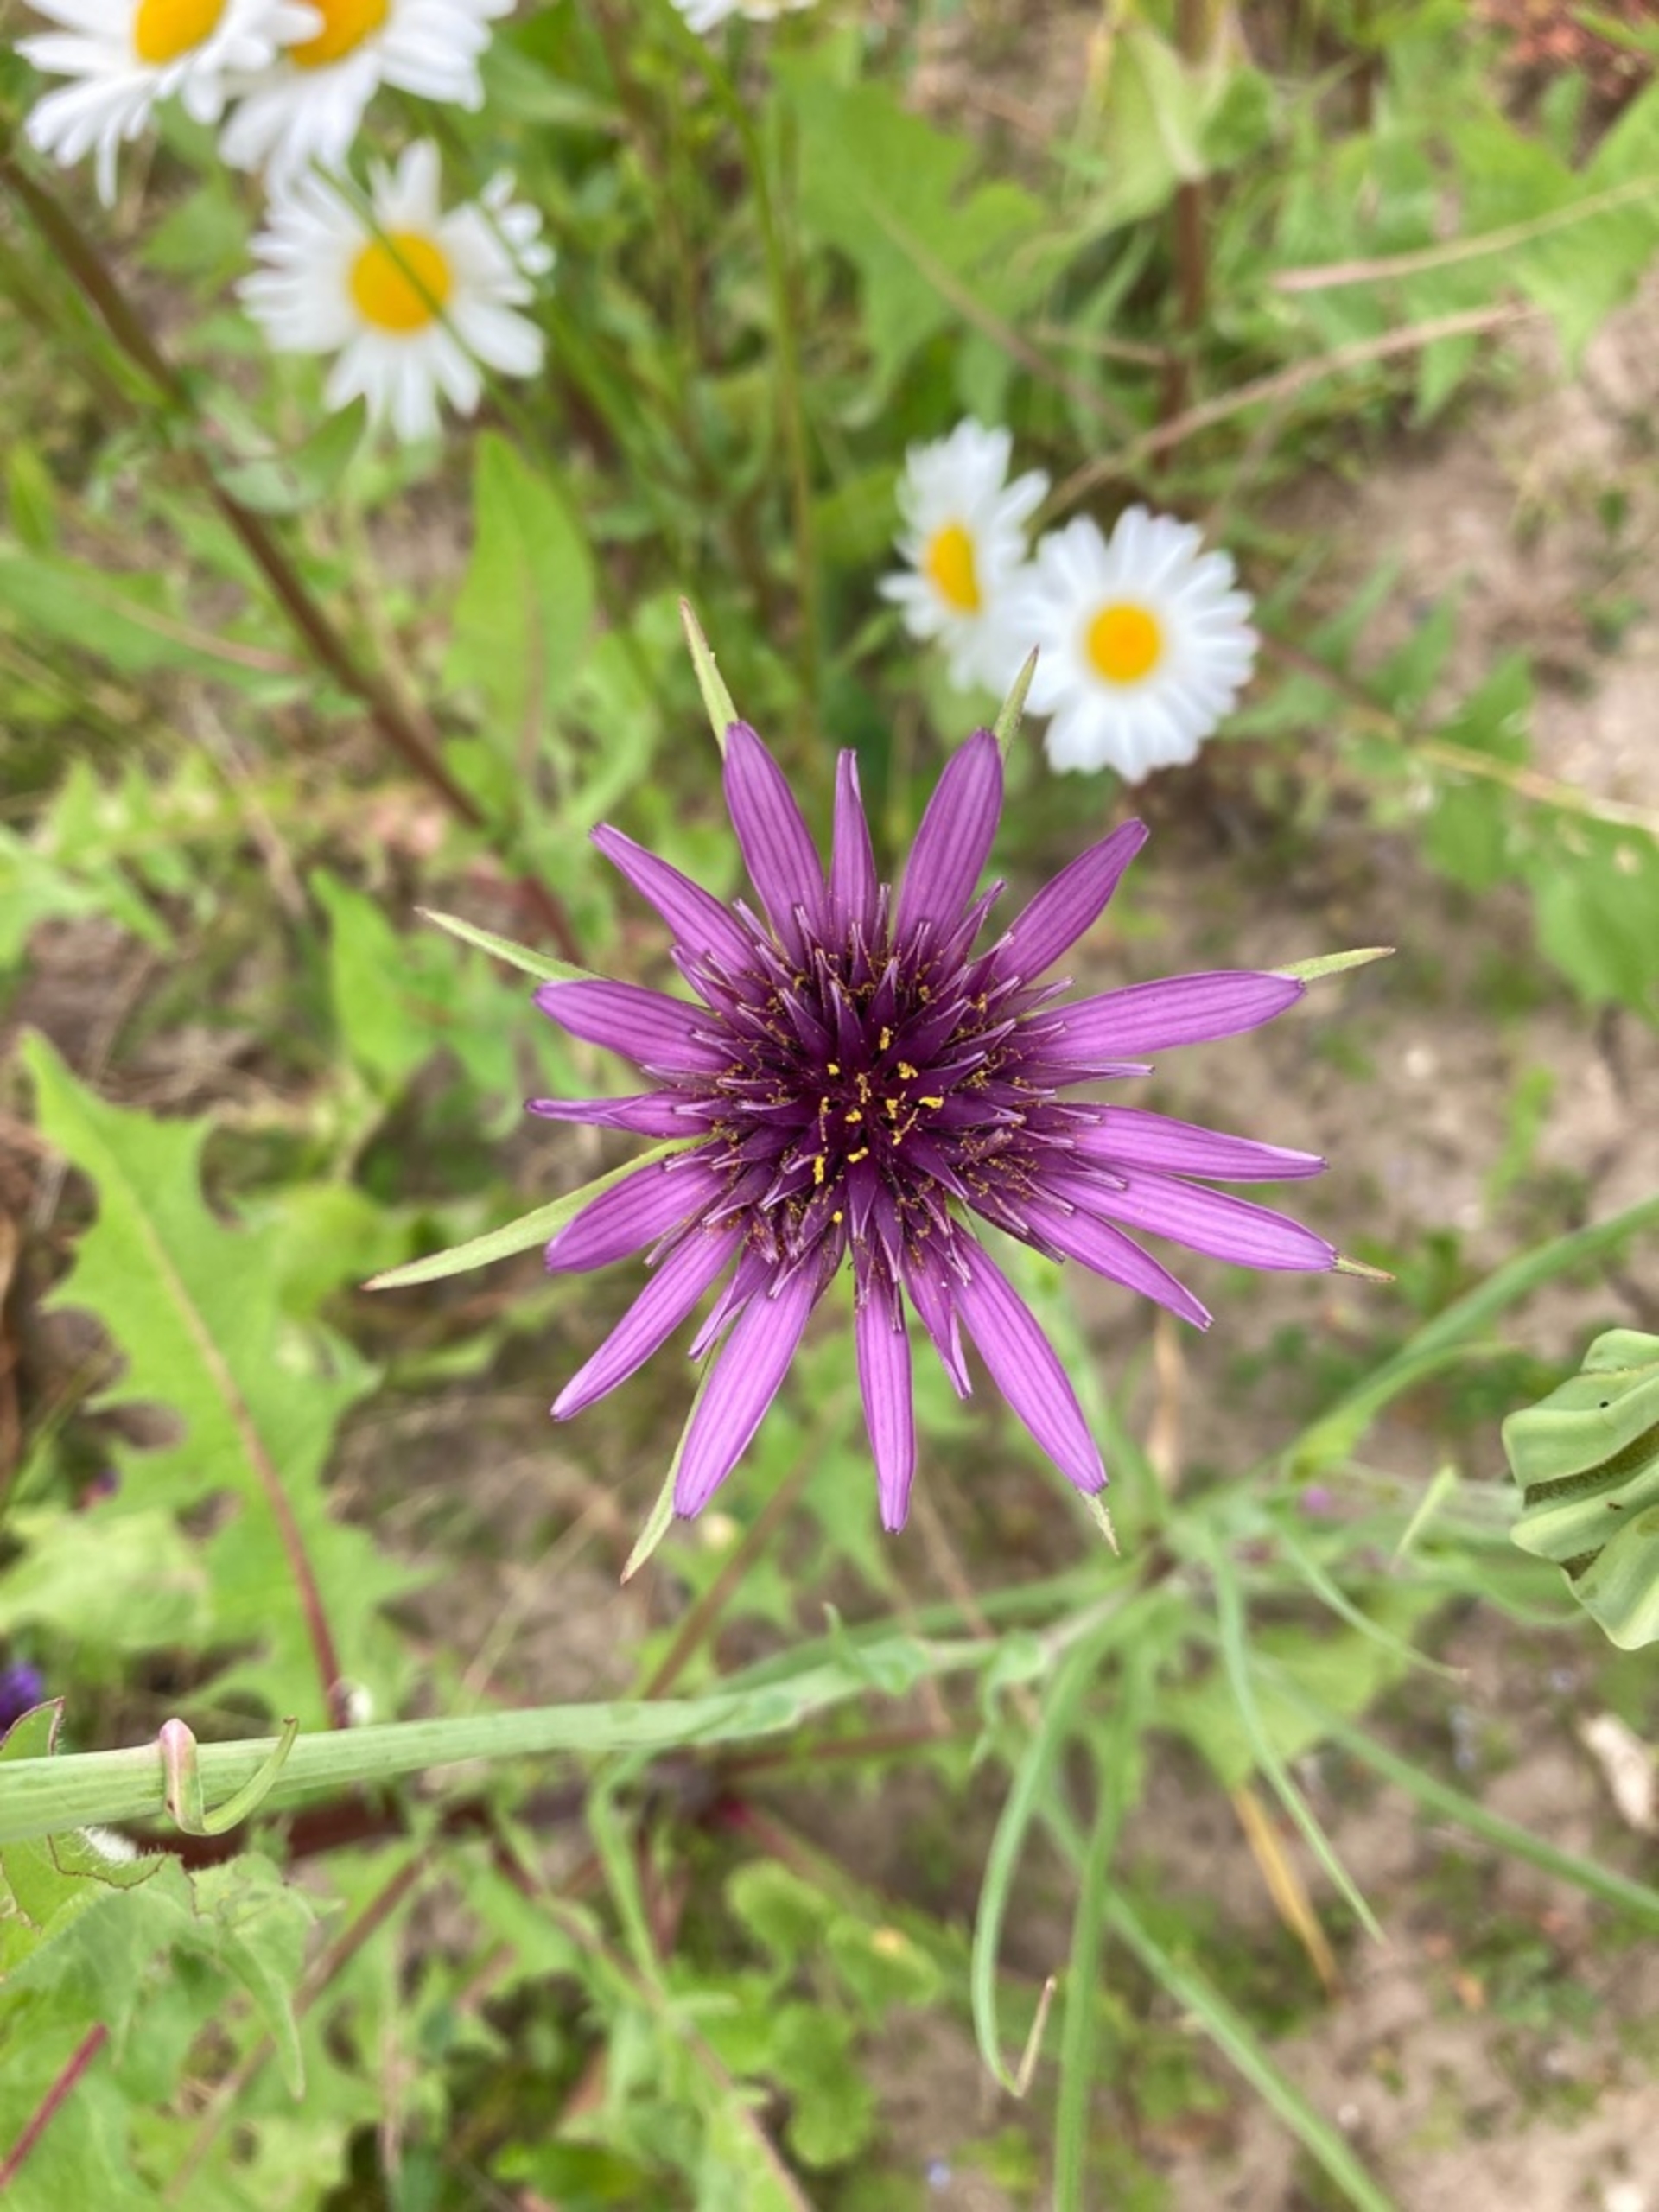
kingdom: Plantae
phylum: Tracheophyta
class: Magnoliopsida
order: Asterales
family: Asteraceae
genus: Tragopogon
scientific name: Tragopogon porrifolius
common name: Havrerod
